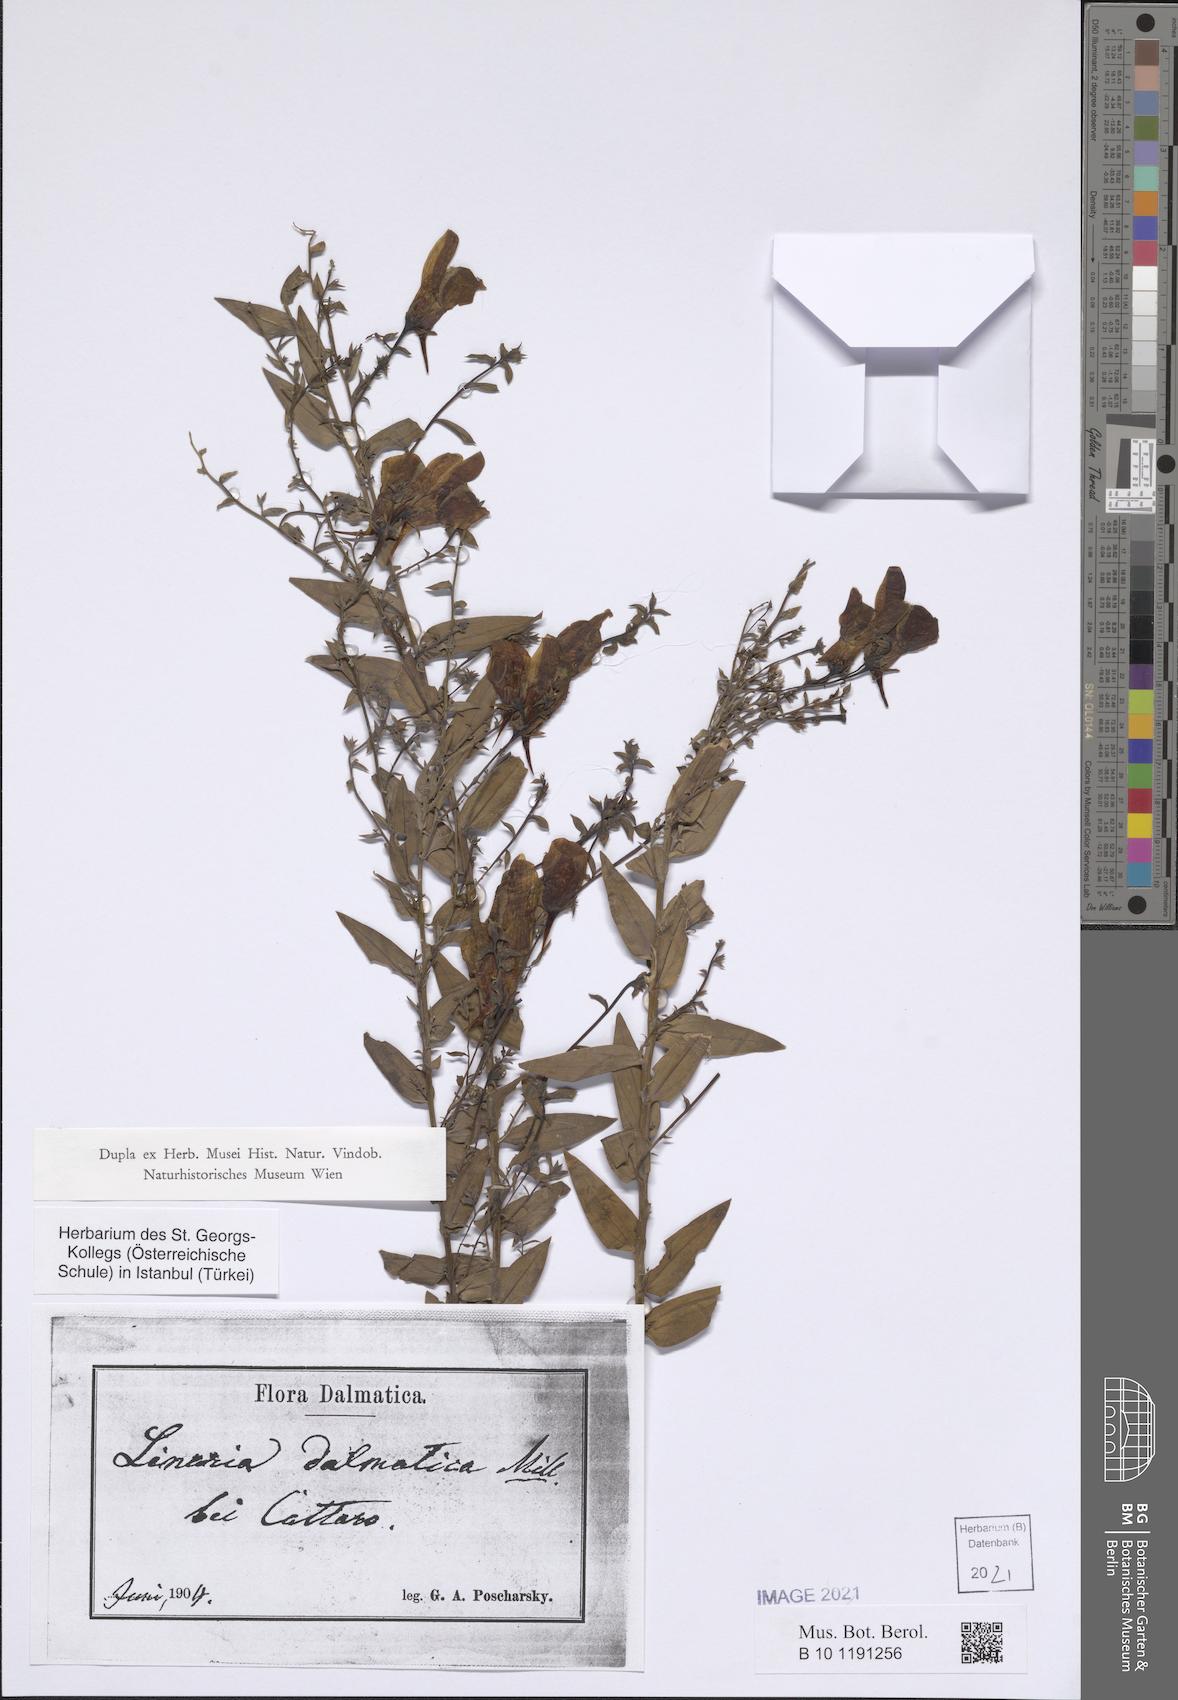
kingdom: Plantae
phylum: Tracheophyta
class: Magnoliopsida
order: Lamiales
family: Plantaginaceae
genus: Linaria
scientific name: Linaria dalmatica
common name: Dalmatian toadflax
